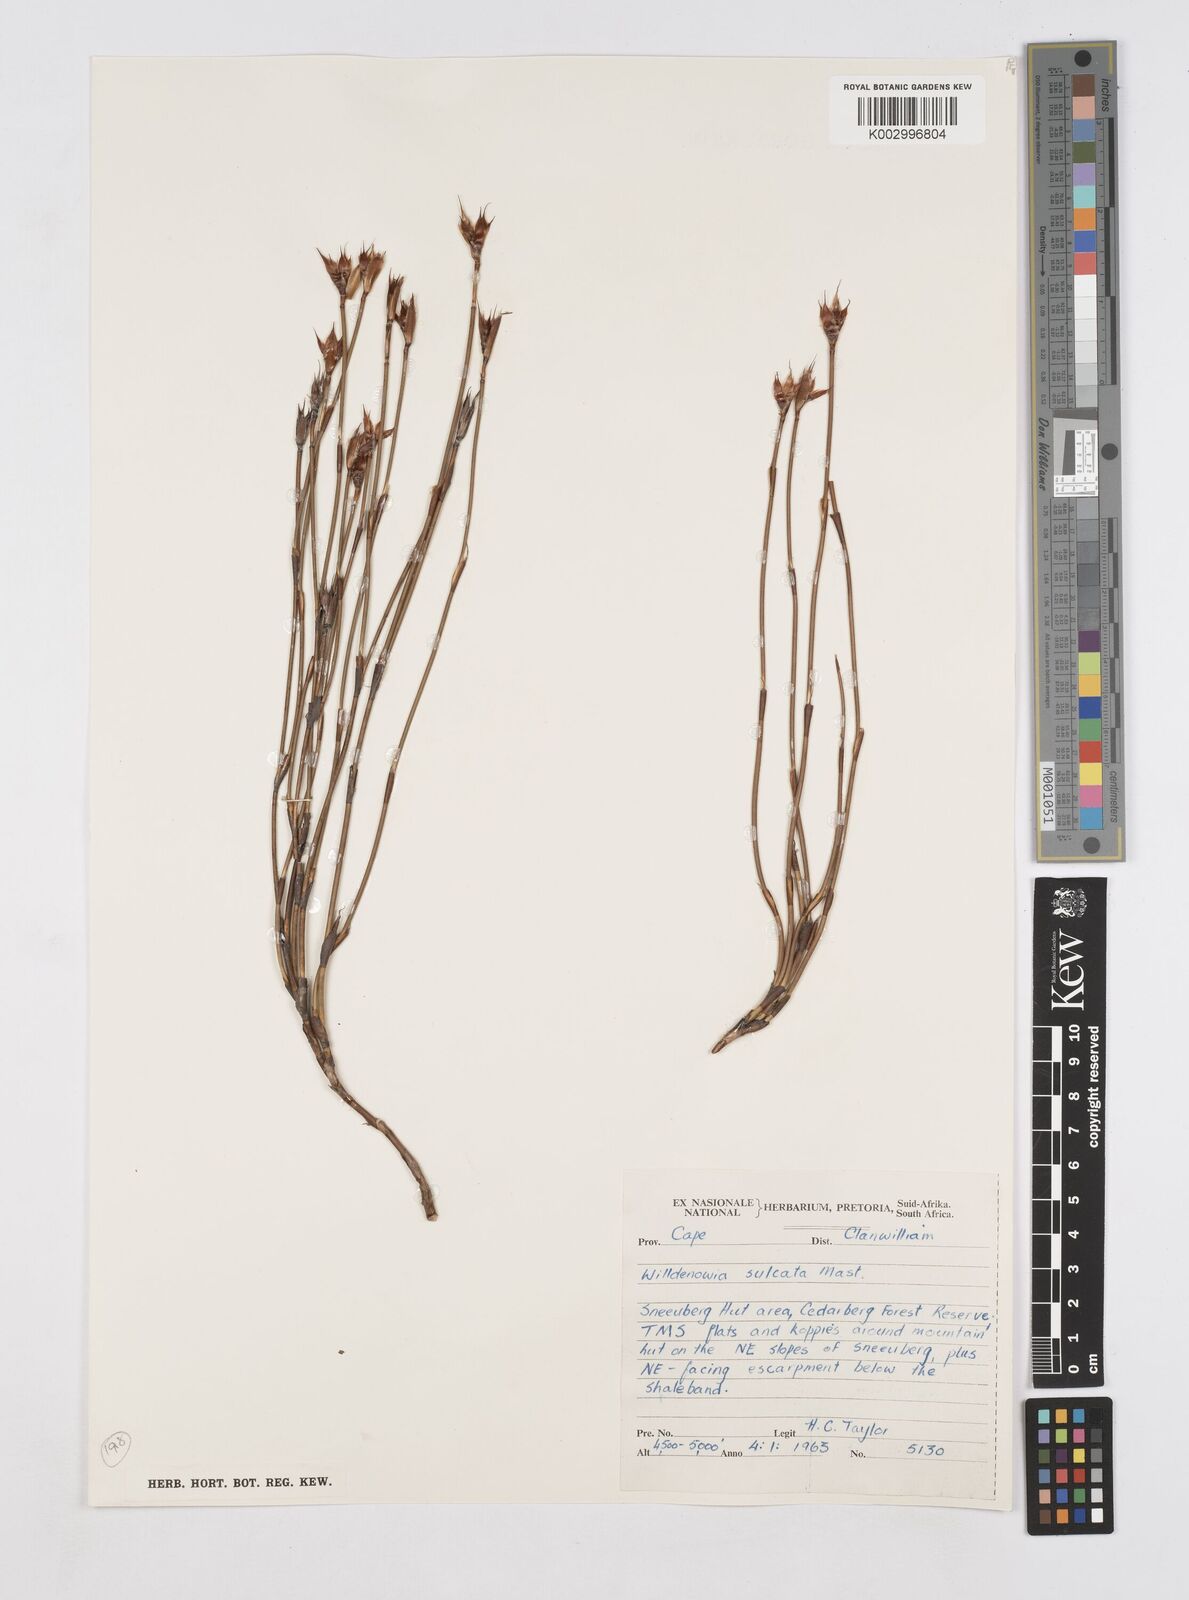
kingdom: Plantae
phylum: Tracheophyta
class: Liliopsida
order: Poales
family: Restionaceae
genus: Willdenowia
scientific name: Willdenowia sulcata
